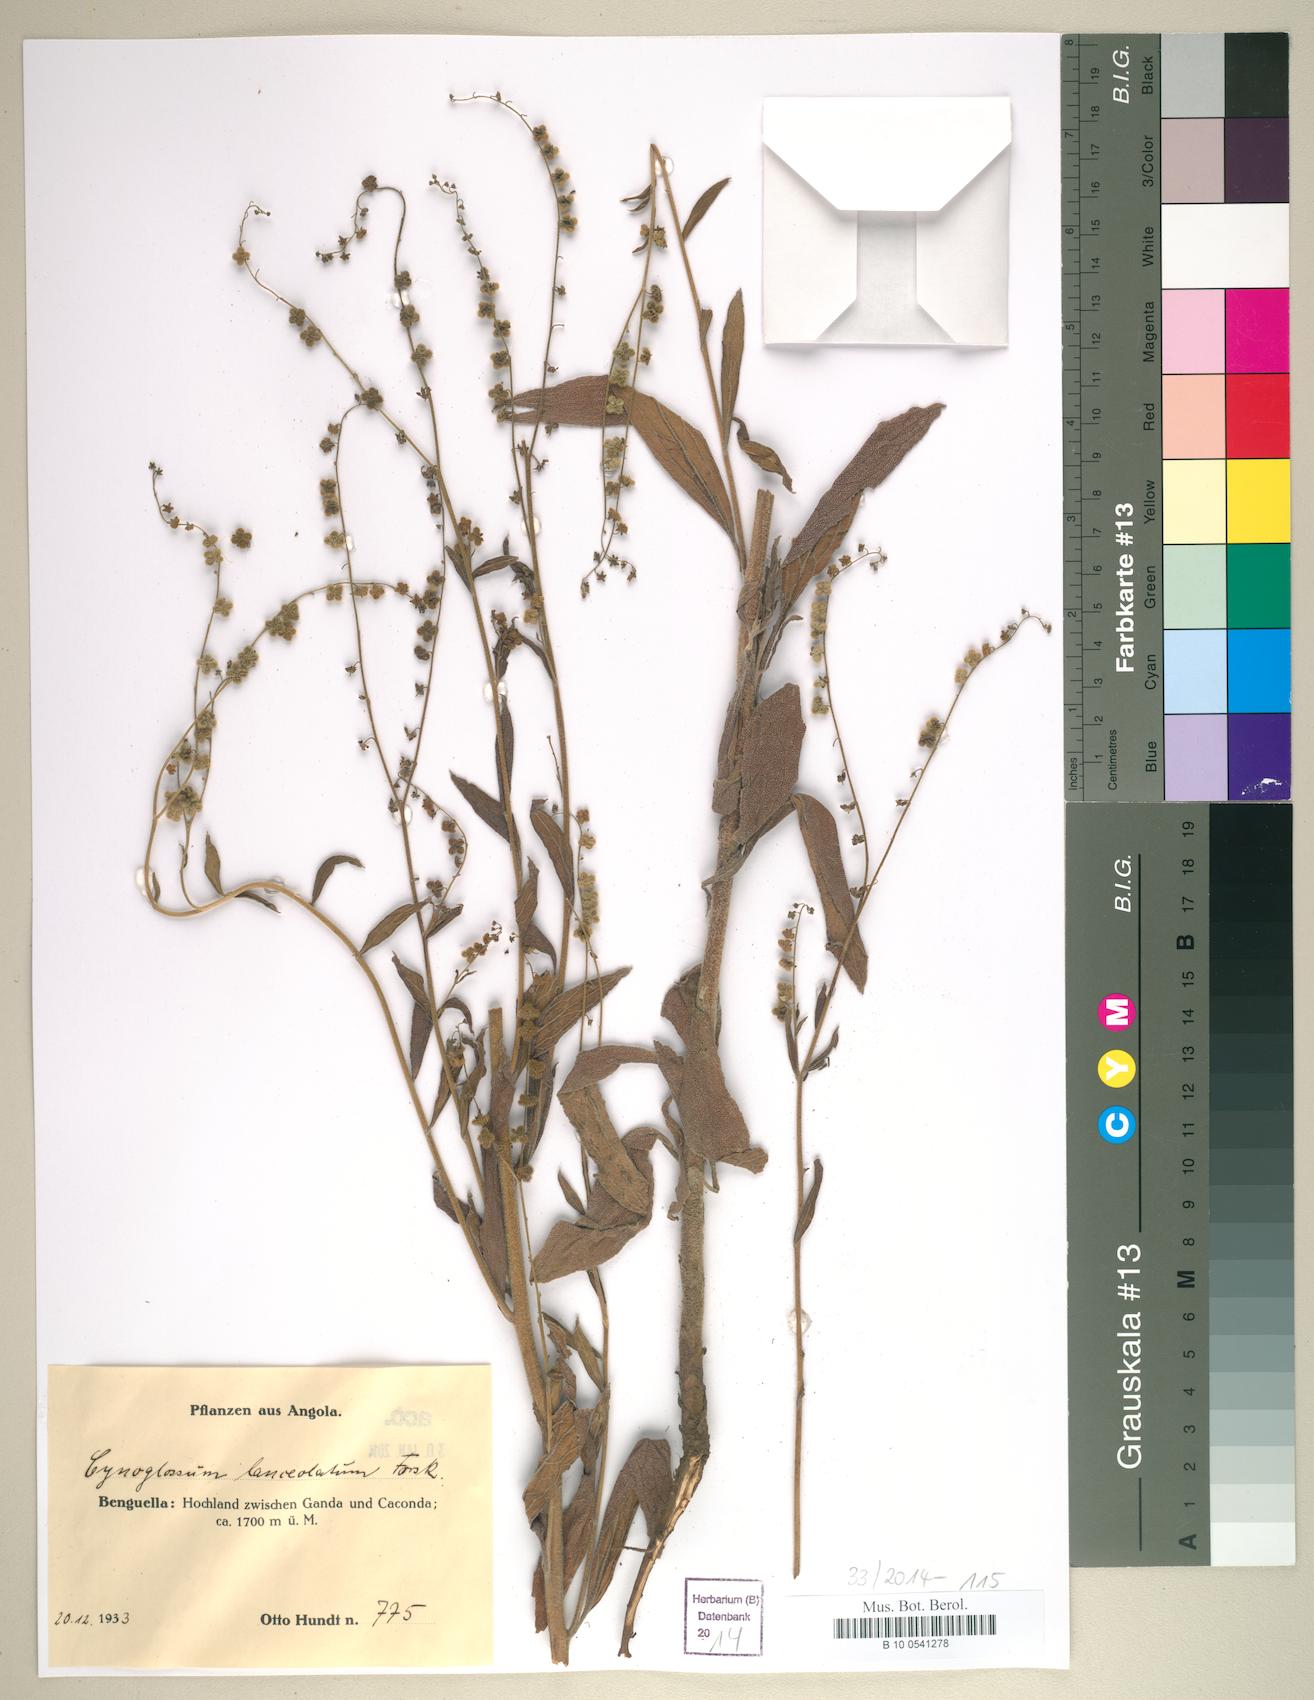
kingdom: Plantae
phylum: Tracheophyta
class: Magnoliopsida
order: Boraginales
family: Boraginaceae
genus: Paracynoglossum
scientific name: Paracynoglossum lanceolatum
